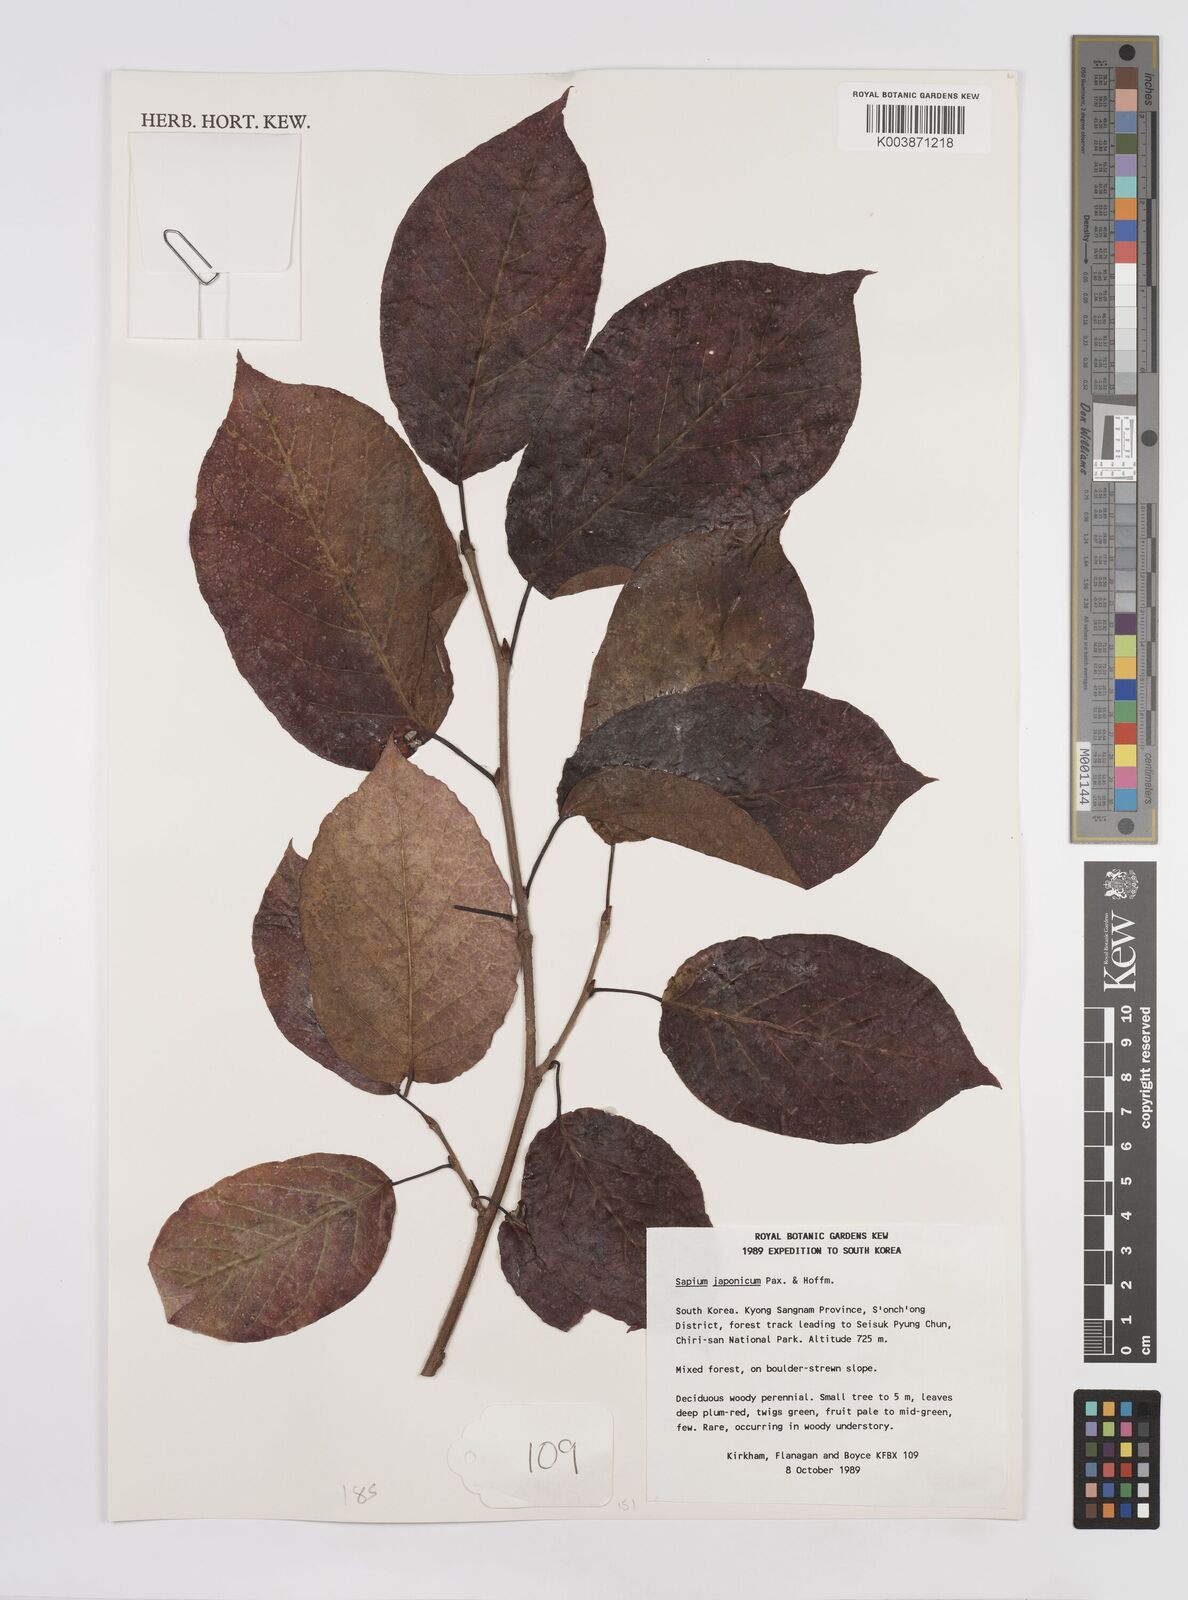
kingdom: Plantae
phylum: Tracheophyta
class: Magnoliopsida
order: Malpighiales
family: Euphorbiaceae
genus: Neoshirakia
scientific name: Neoshirakia japonica
